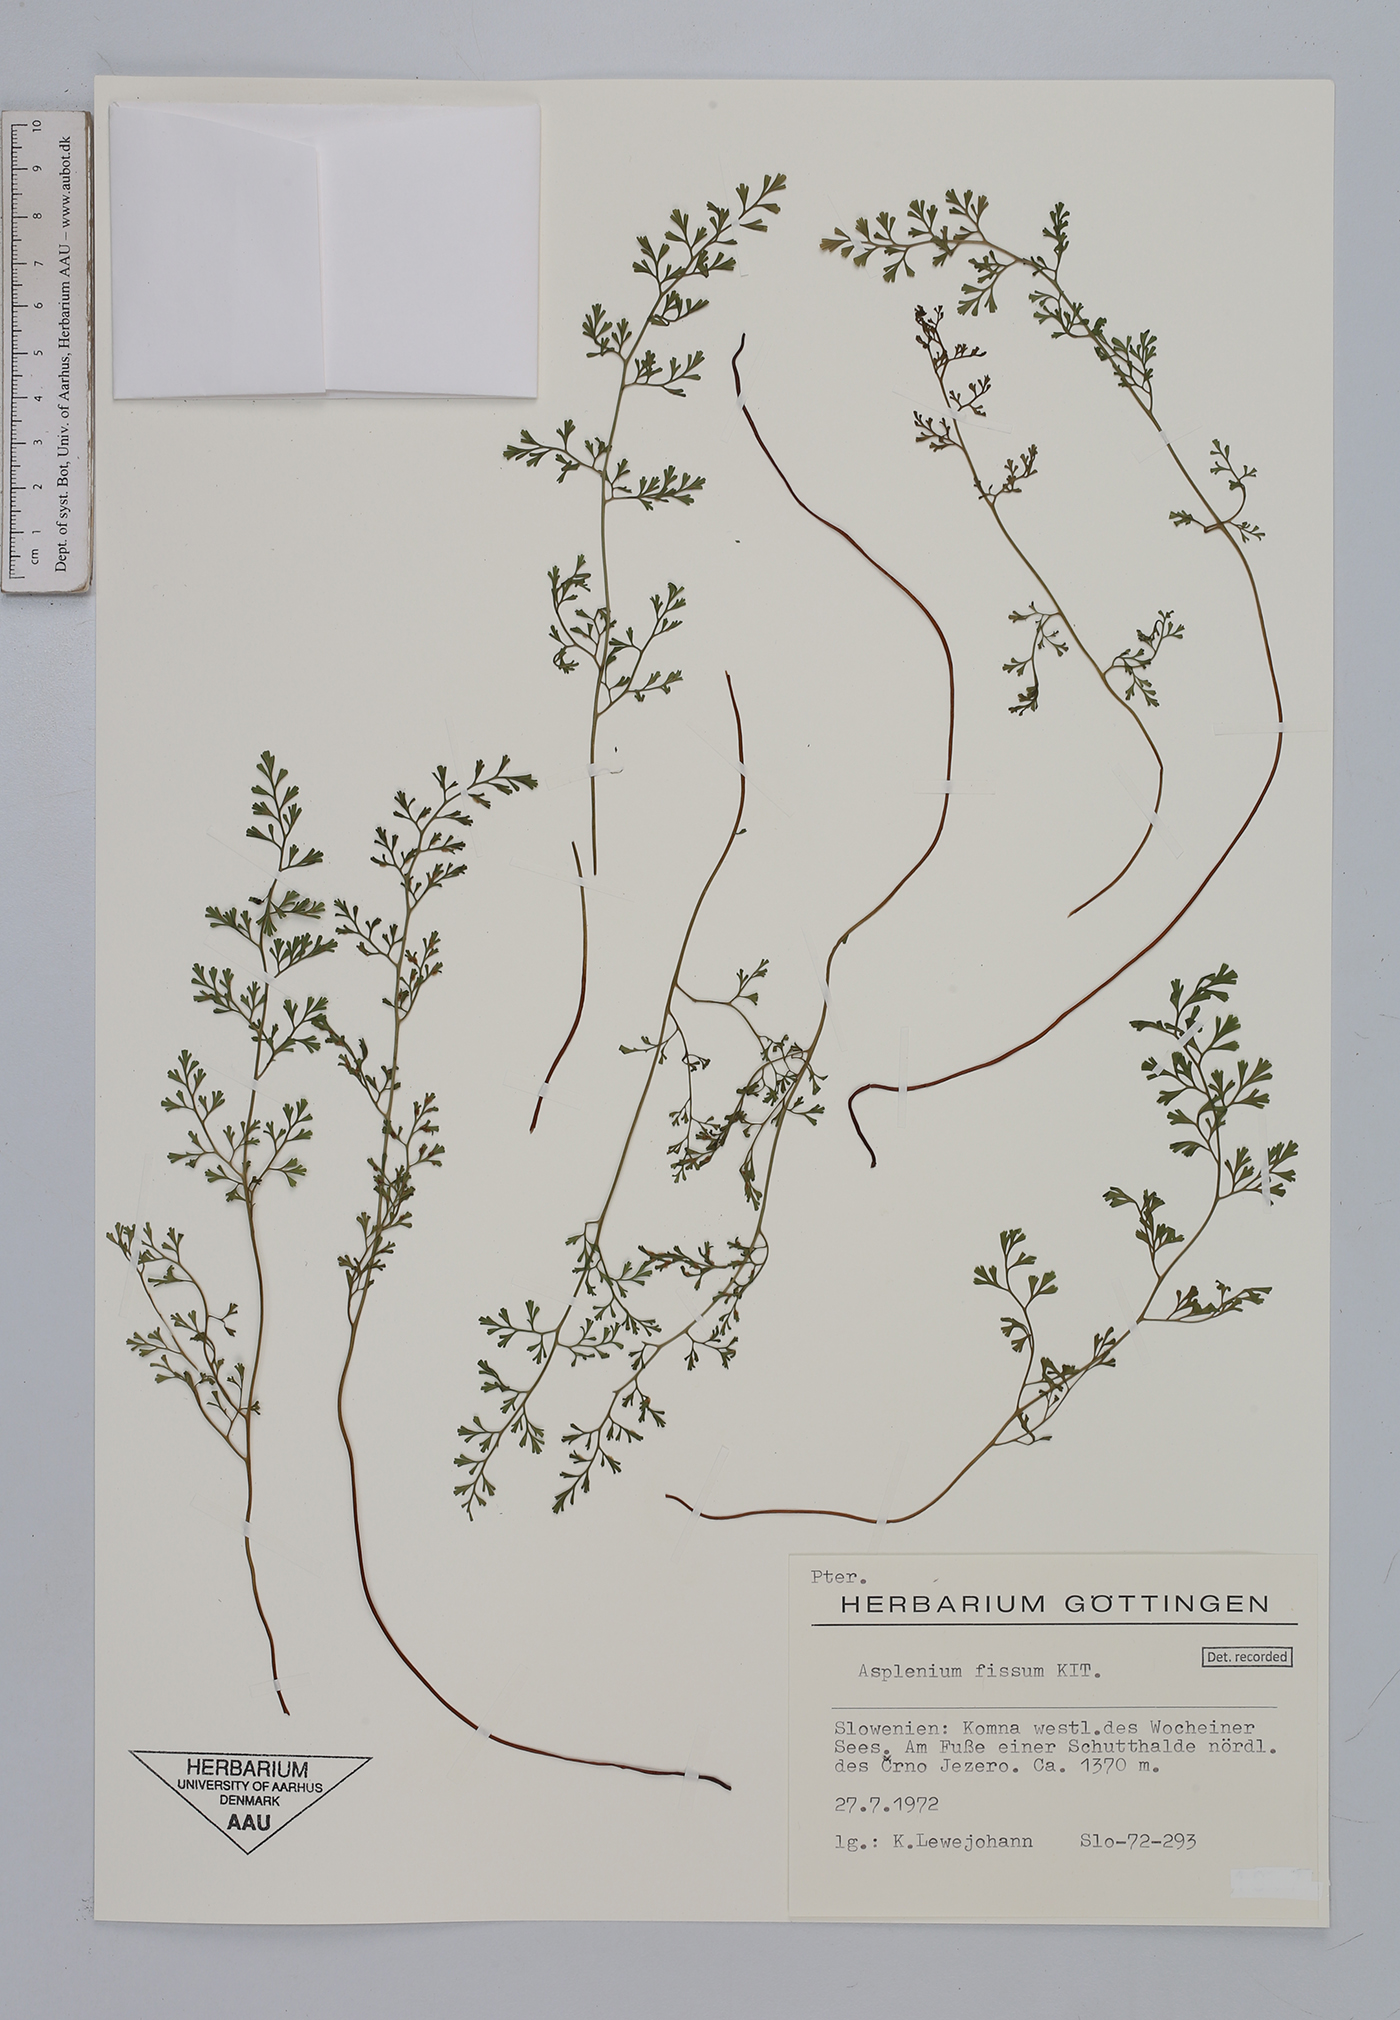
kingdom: Plantae
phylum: Tracheophyta
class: Polypodiopsida
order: Polypodiales
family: Aspleniaceae
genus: Asplenium
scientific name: Asplenium fissum
